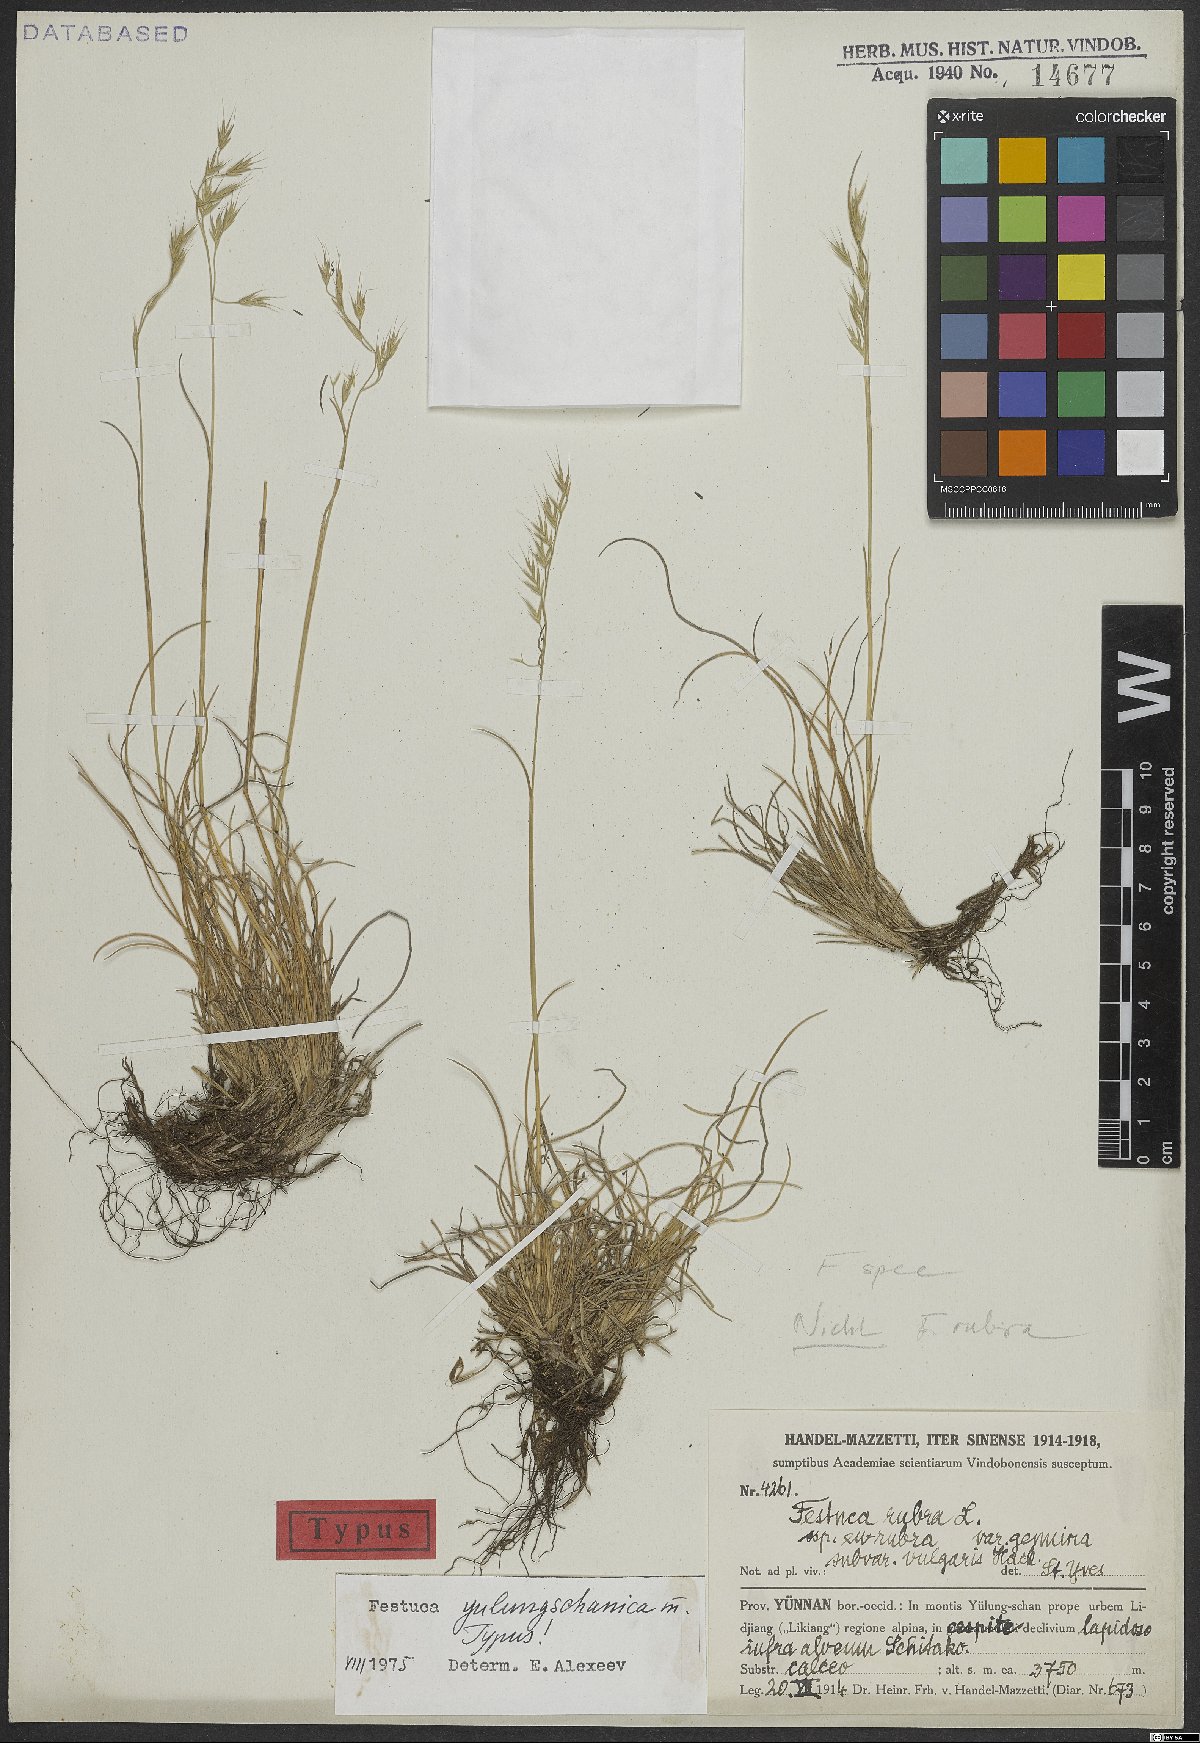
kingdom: Plantae
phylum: Tracheophyta
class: Liliopsida
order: Poales
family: Poaceae
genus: Festuca
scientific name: Festuca yulungschanica
